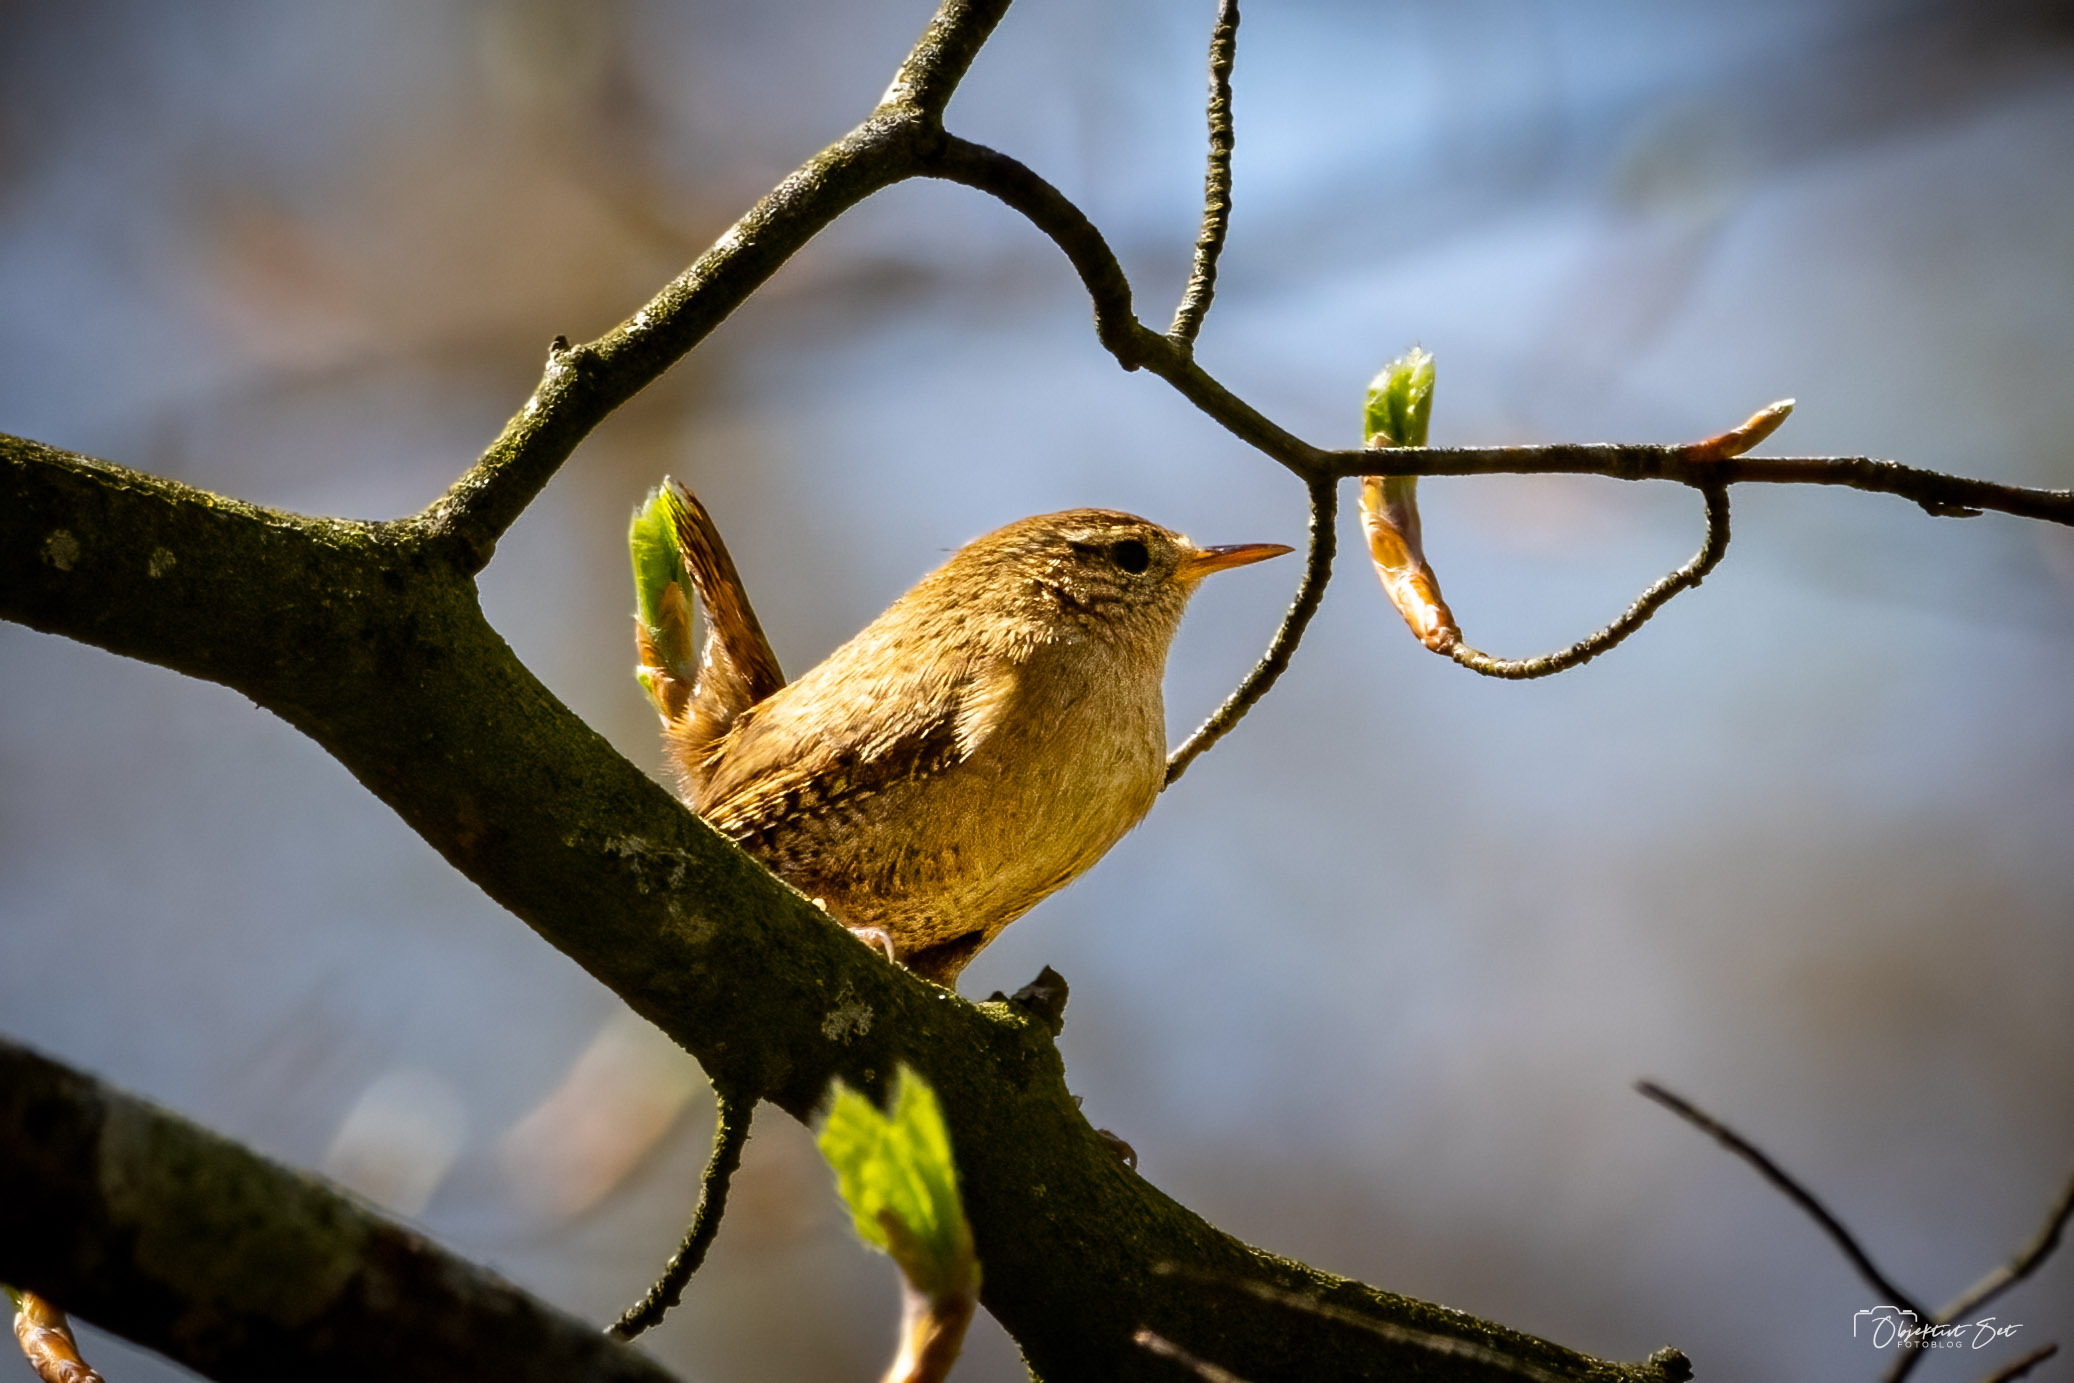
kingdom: Animalia
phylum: Chordata
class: Aves
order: Passeriformes
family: Troglodytidae
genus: Troglodytes
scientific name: Troglodytes troglodytes
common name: Gærdesmutte
